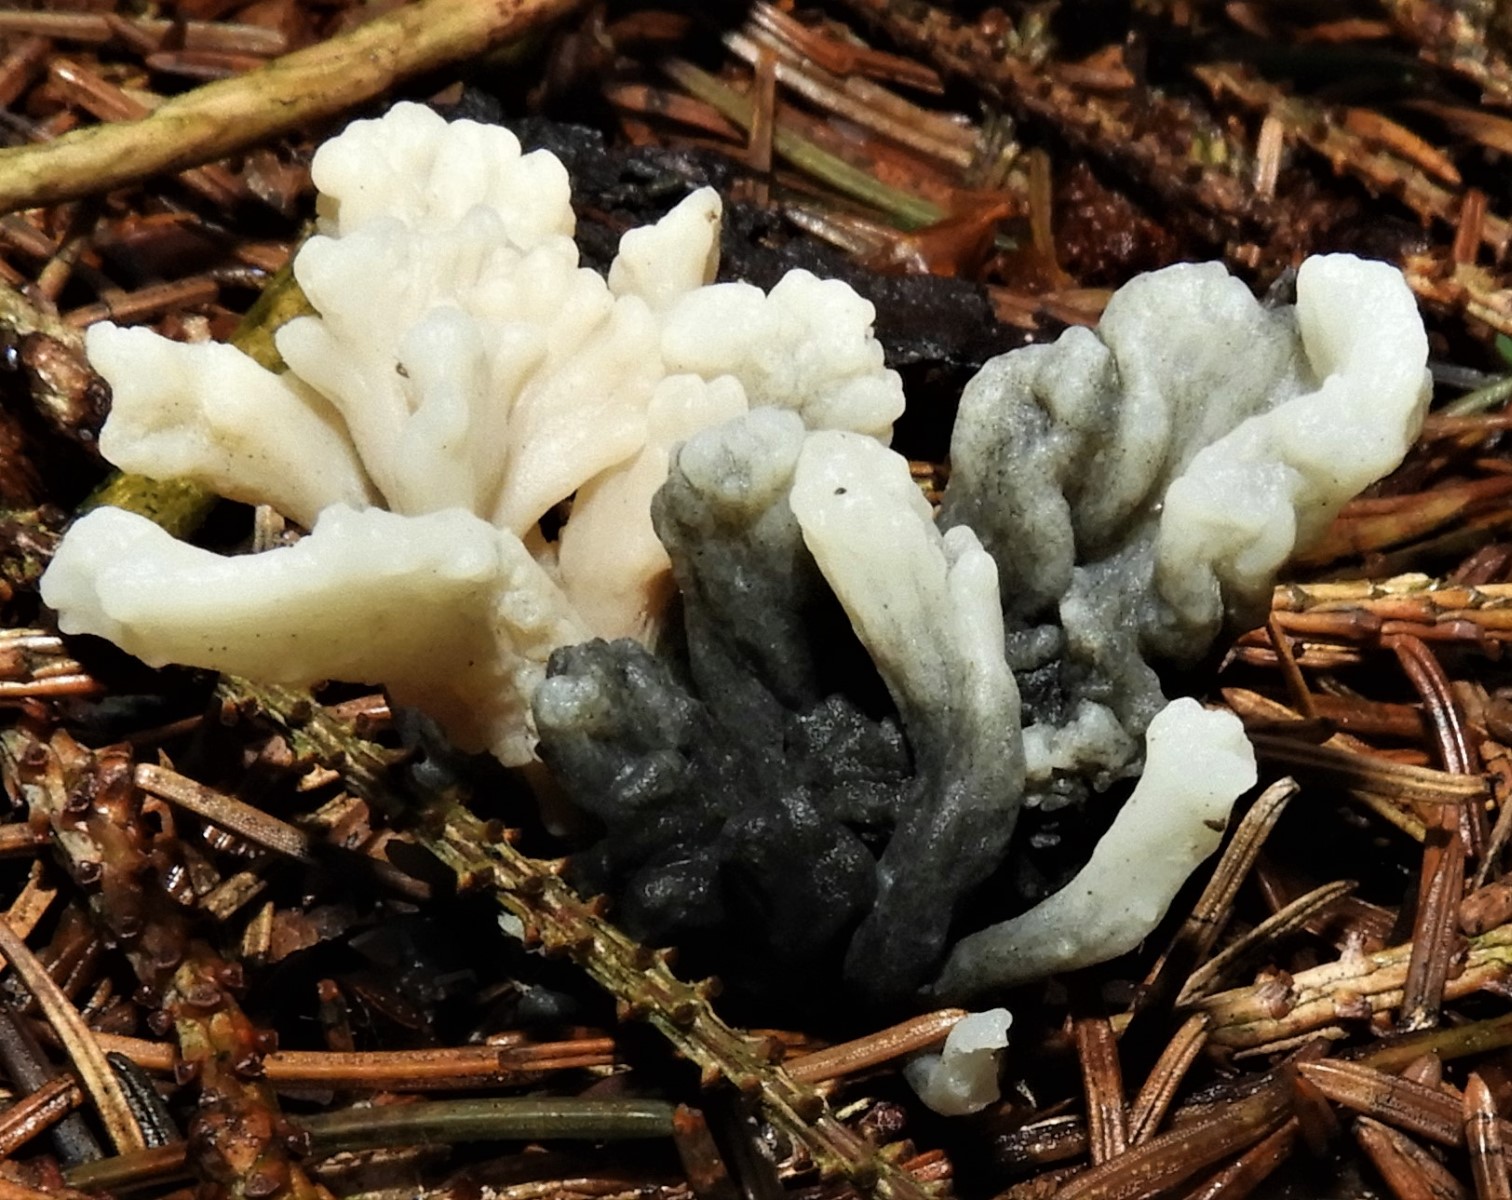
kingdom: Fungi
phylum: Ascomycota
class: Sordariomycetes
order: Sordariales
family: Helminthosphaeriaceae
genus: Helminthosphaeria
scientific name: Helminthosphaeria clavariarum
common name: trold-svampesnyltekerne
